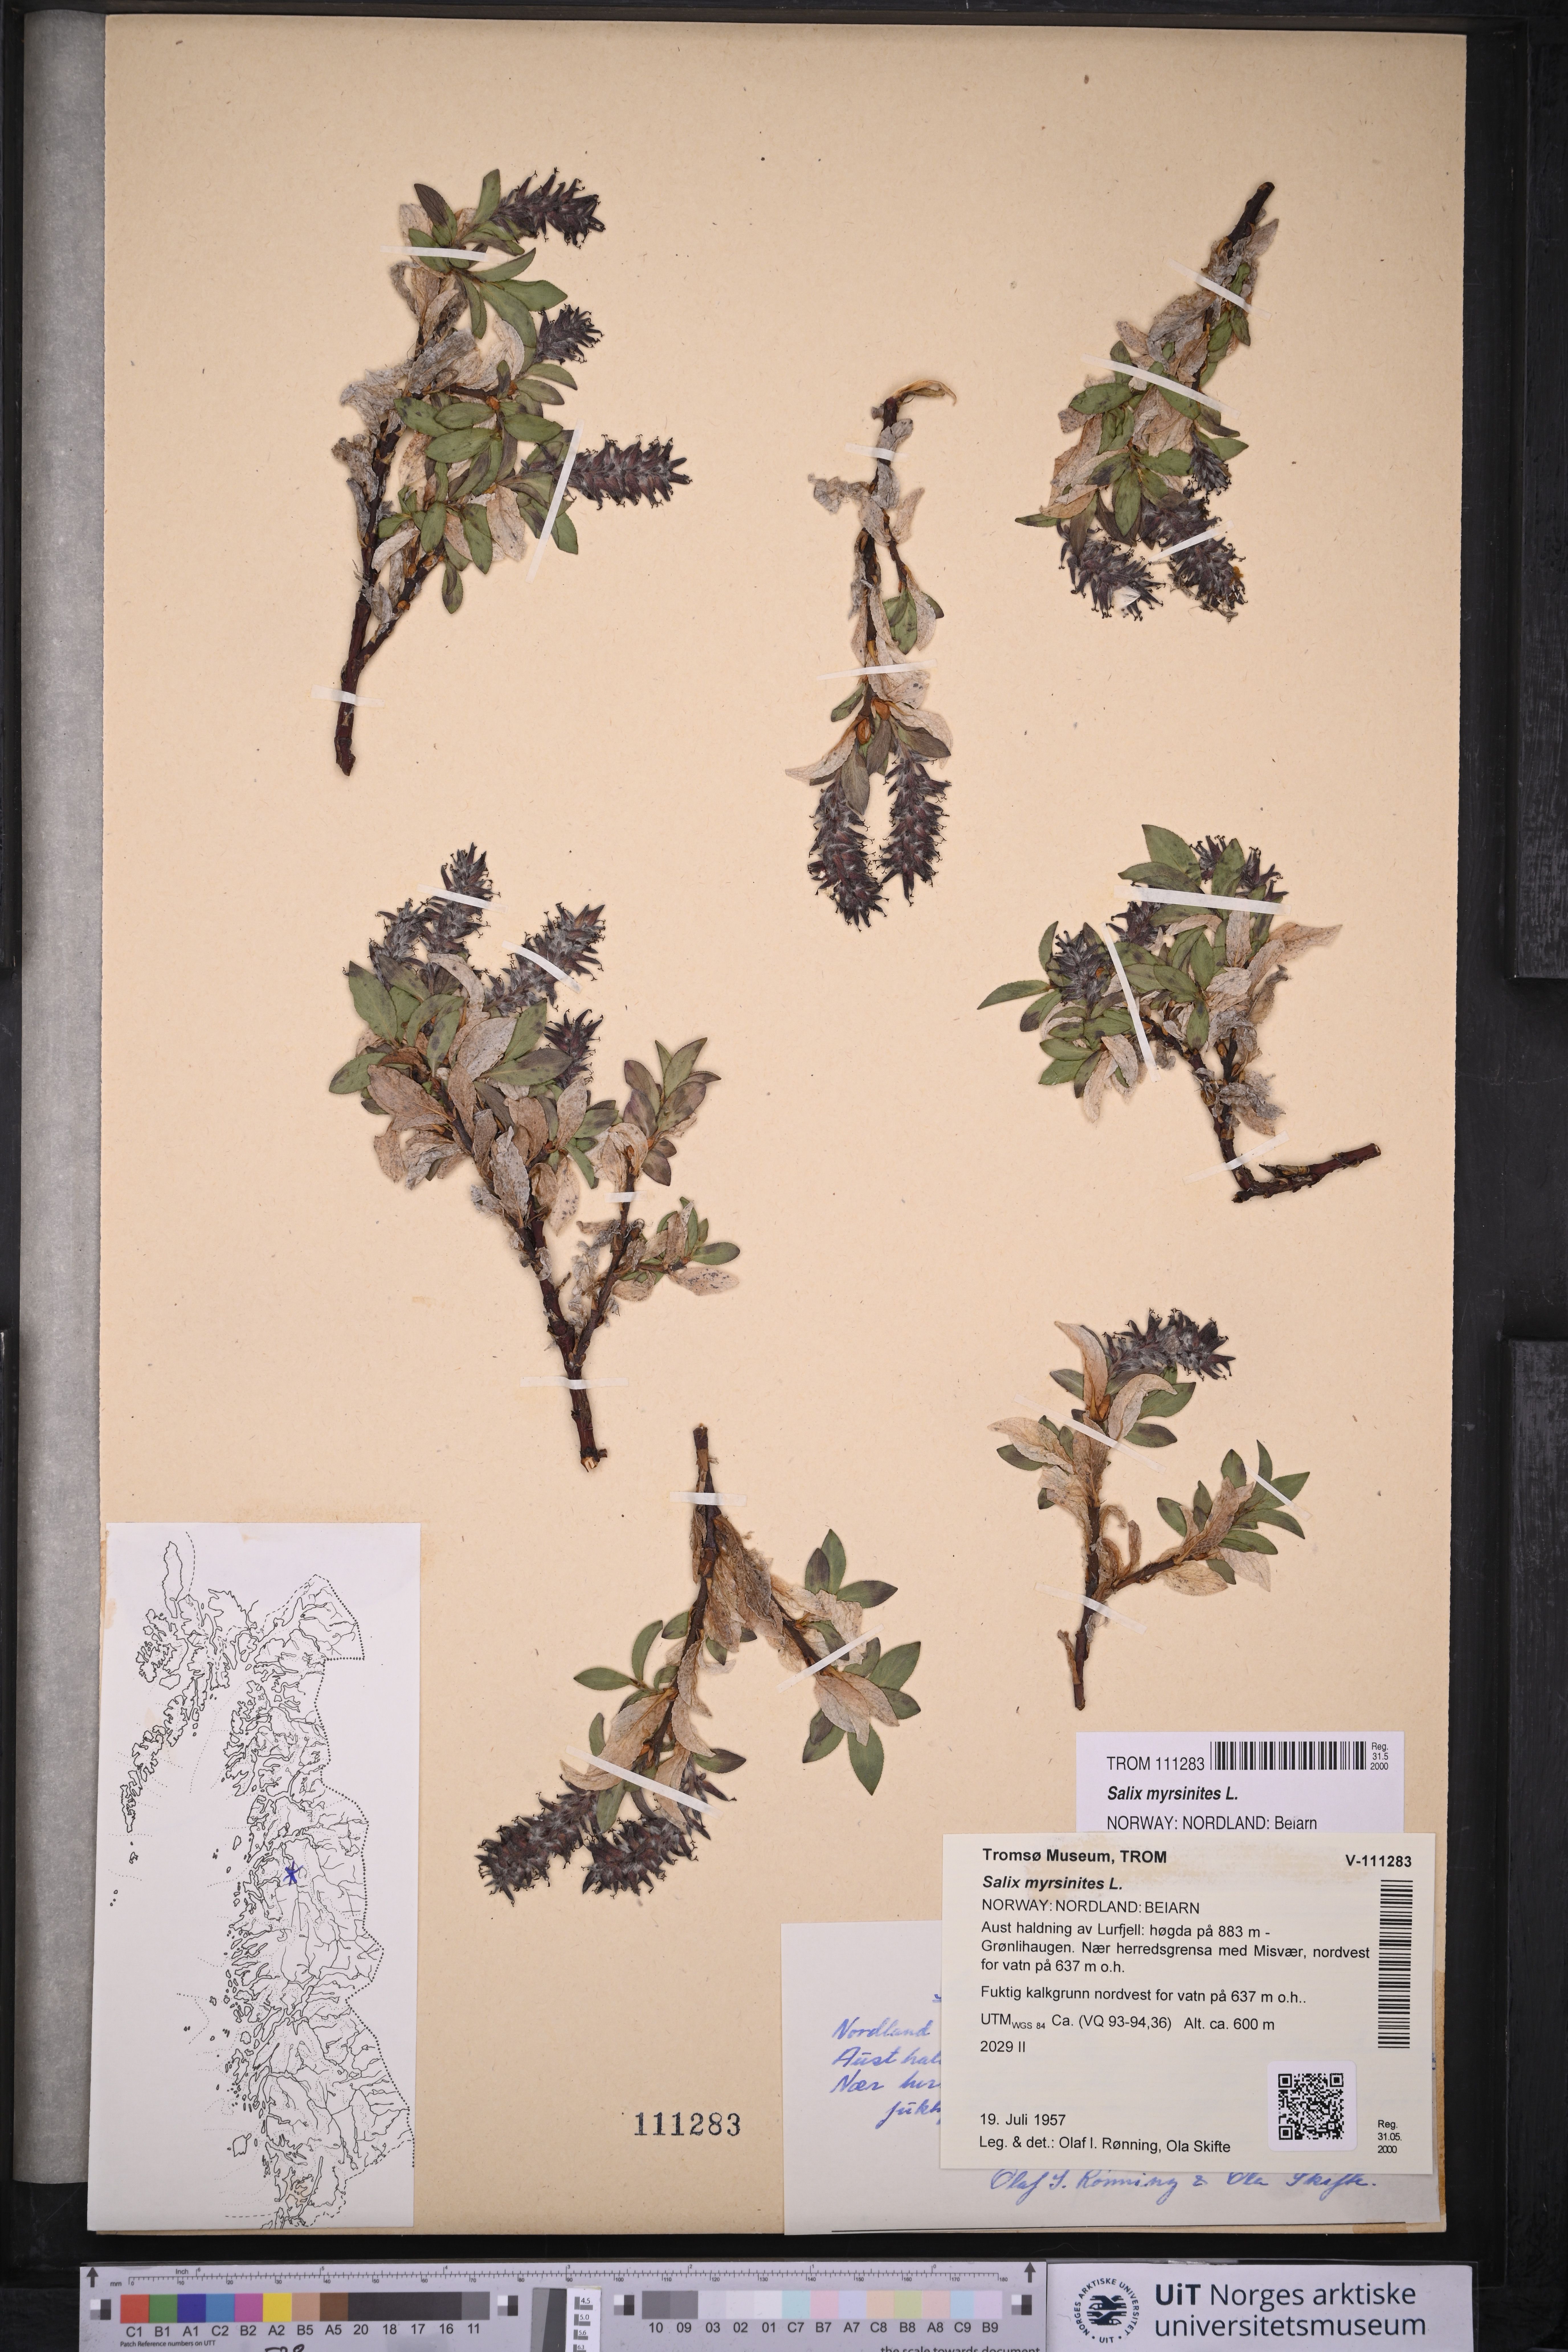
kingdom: Plantae
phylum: Tracheophyta
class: Magnoliopsida
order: Malpighiales
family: Salicaceae
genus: Salix
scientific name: Salix myrsinites
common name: Myrtle willow
